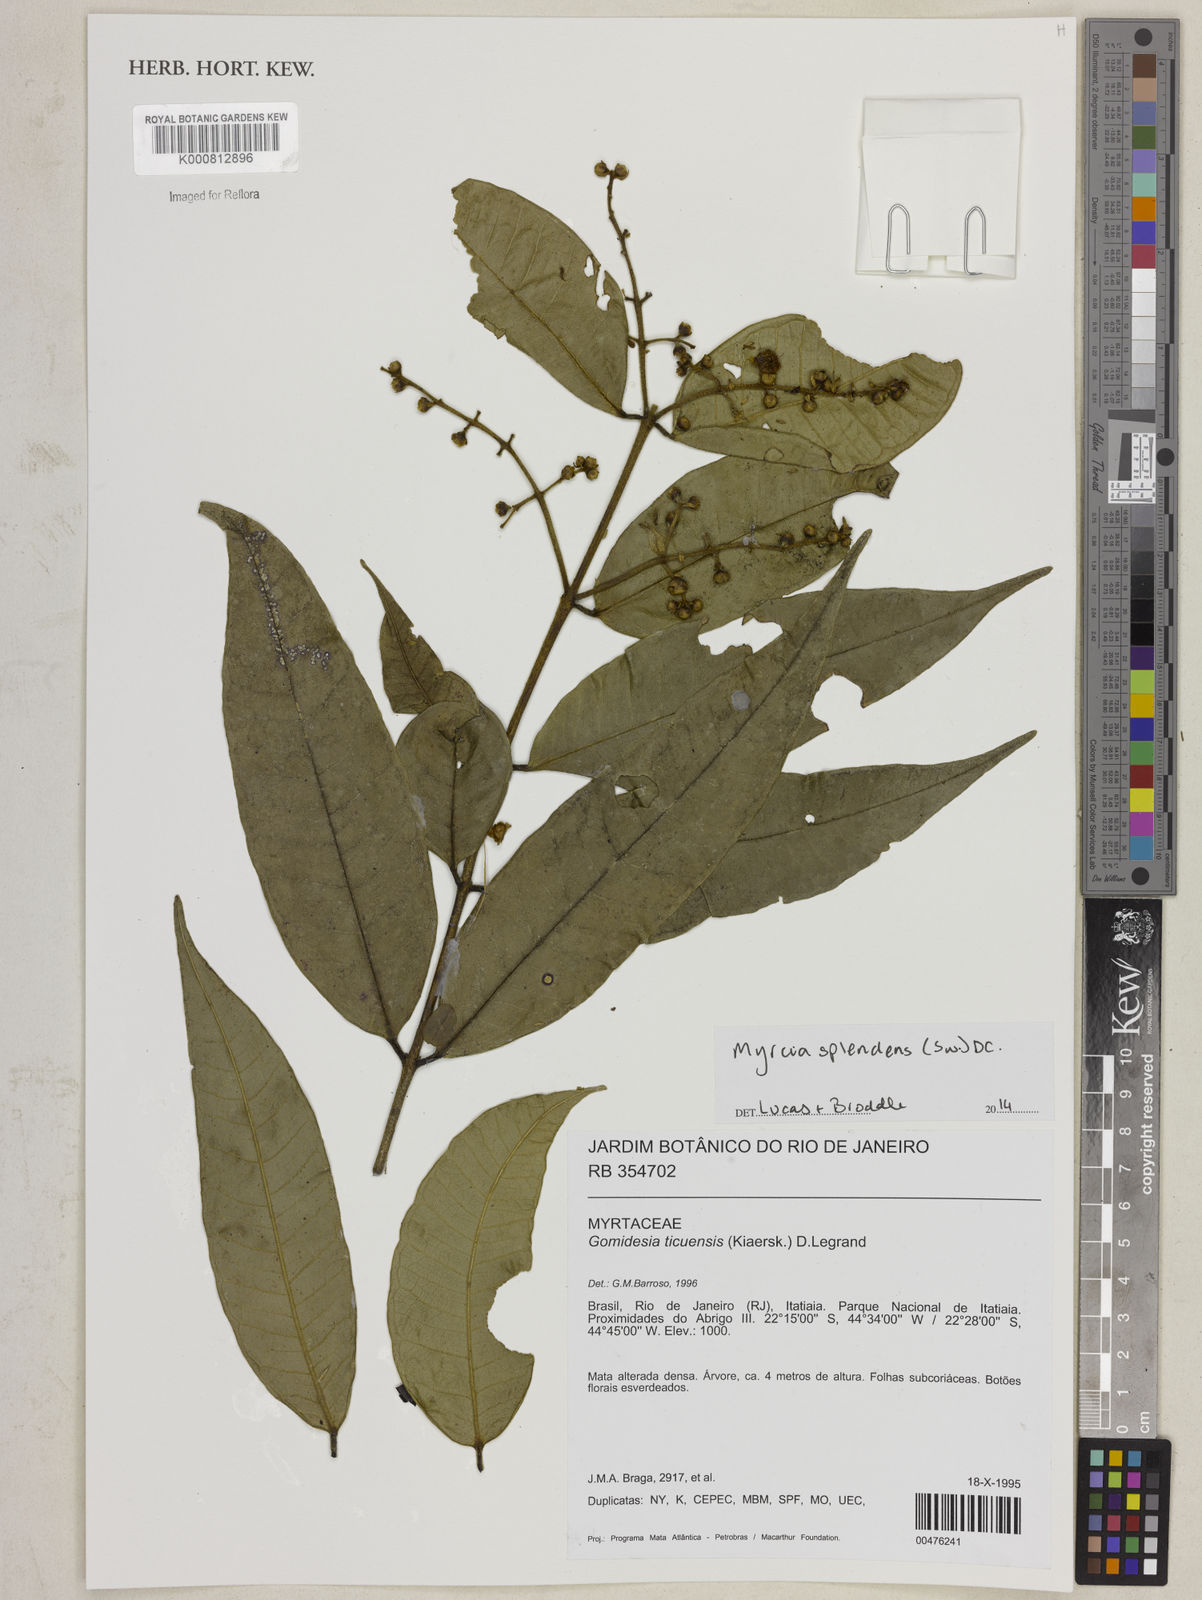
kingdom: Plantae
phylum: Tracheophyta
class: Magnoliopsida
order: Myrtales
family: Myrtaceae
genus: Myrcia
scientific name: Myrcia splendens
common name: Surinam cherry
